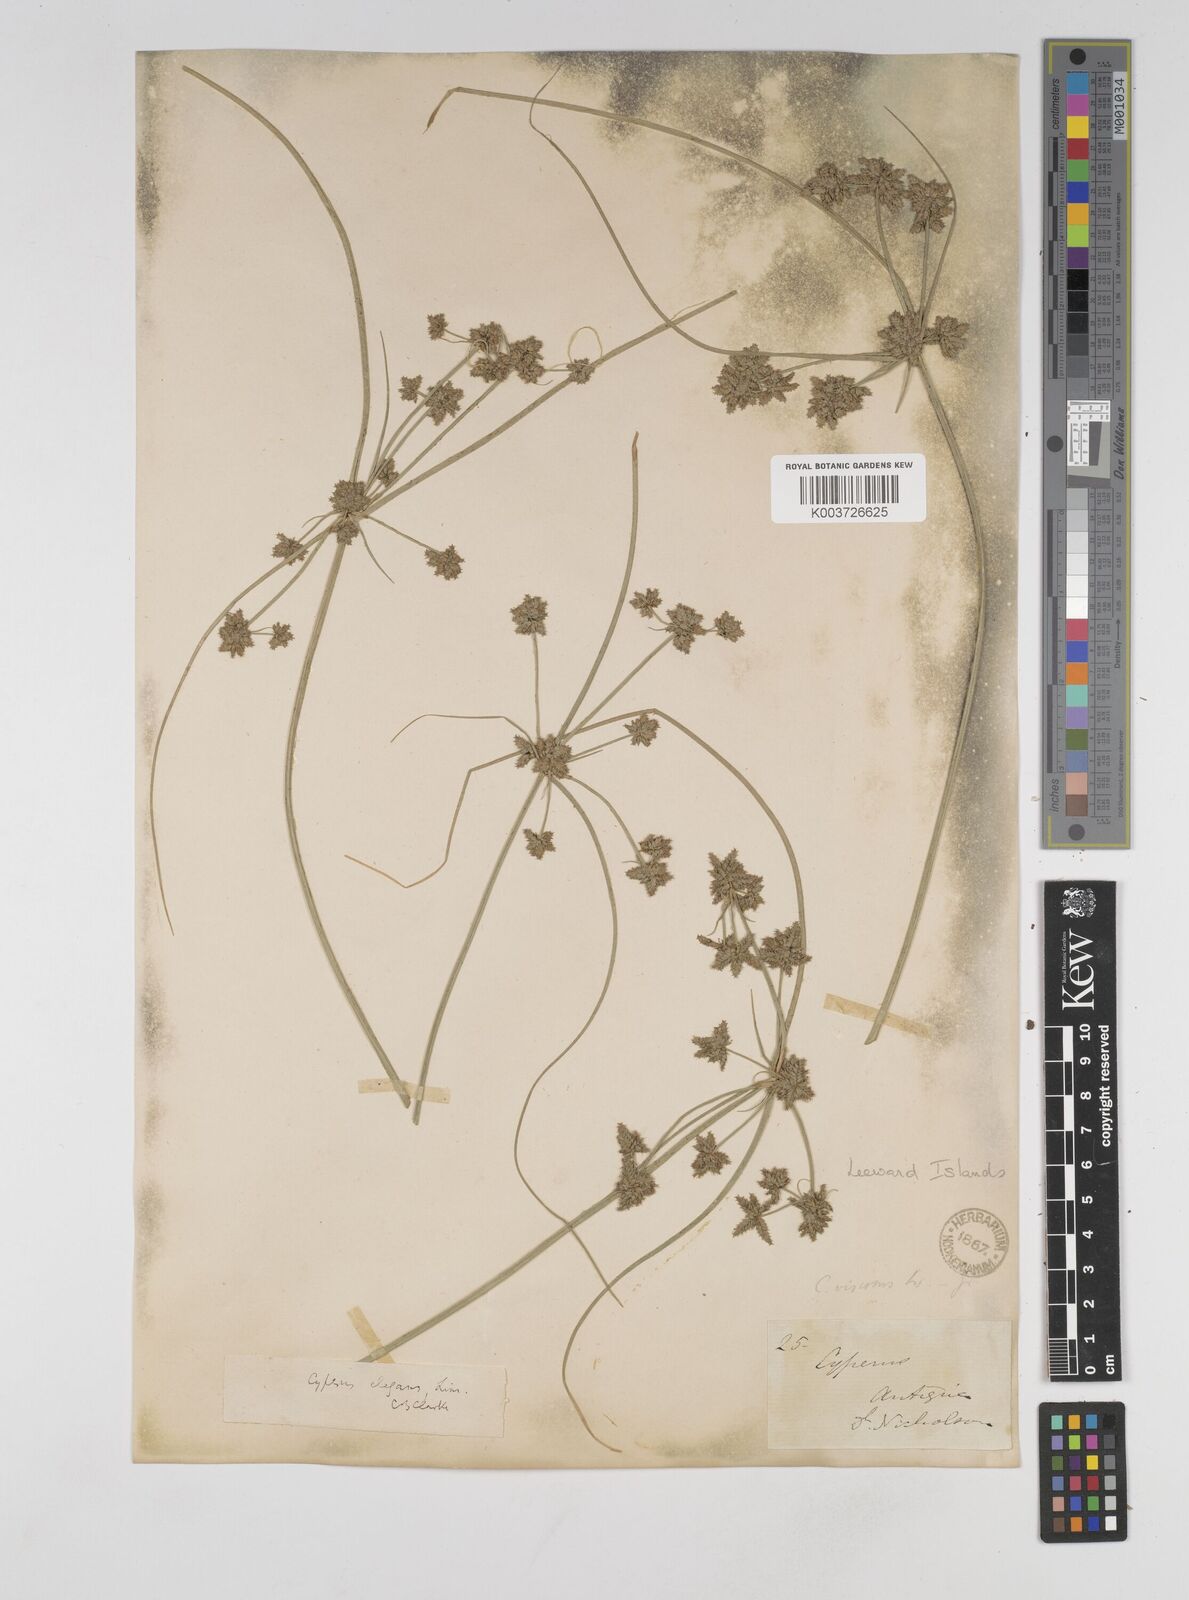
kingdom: Plantae
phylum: Tracheophyta
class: Liliopsida
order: Poales
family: Cyperaceae
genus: Cyperus
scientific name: Cyperus elegans
